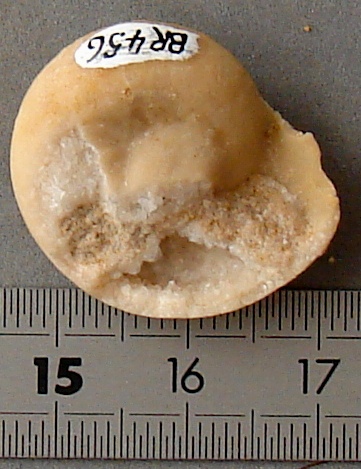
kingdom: Animalia
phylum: Mollusca
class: Gastropoda
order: Pleurotomariida
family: Ptychomphalidae
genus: Ptychomphalus
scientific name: Ptychomphalus Pleurotomaria wehenkeli
